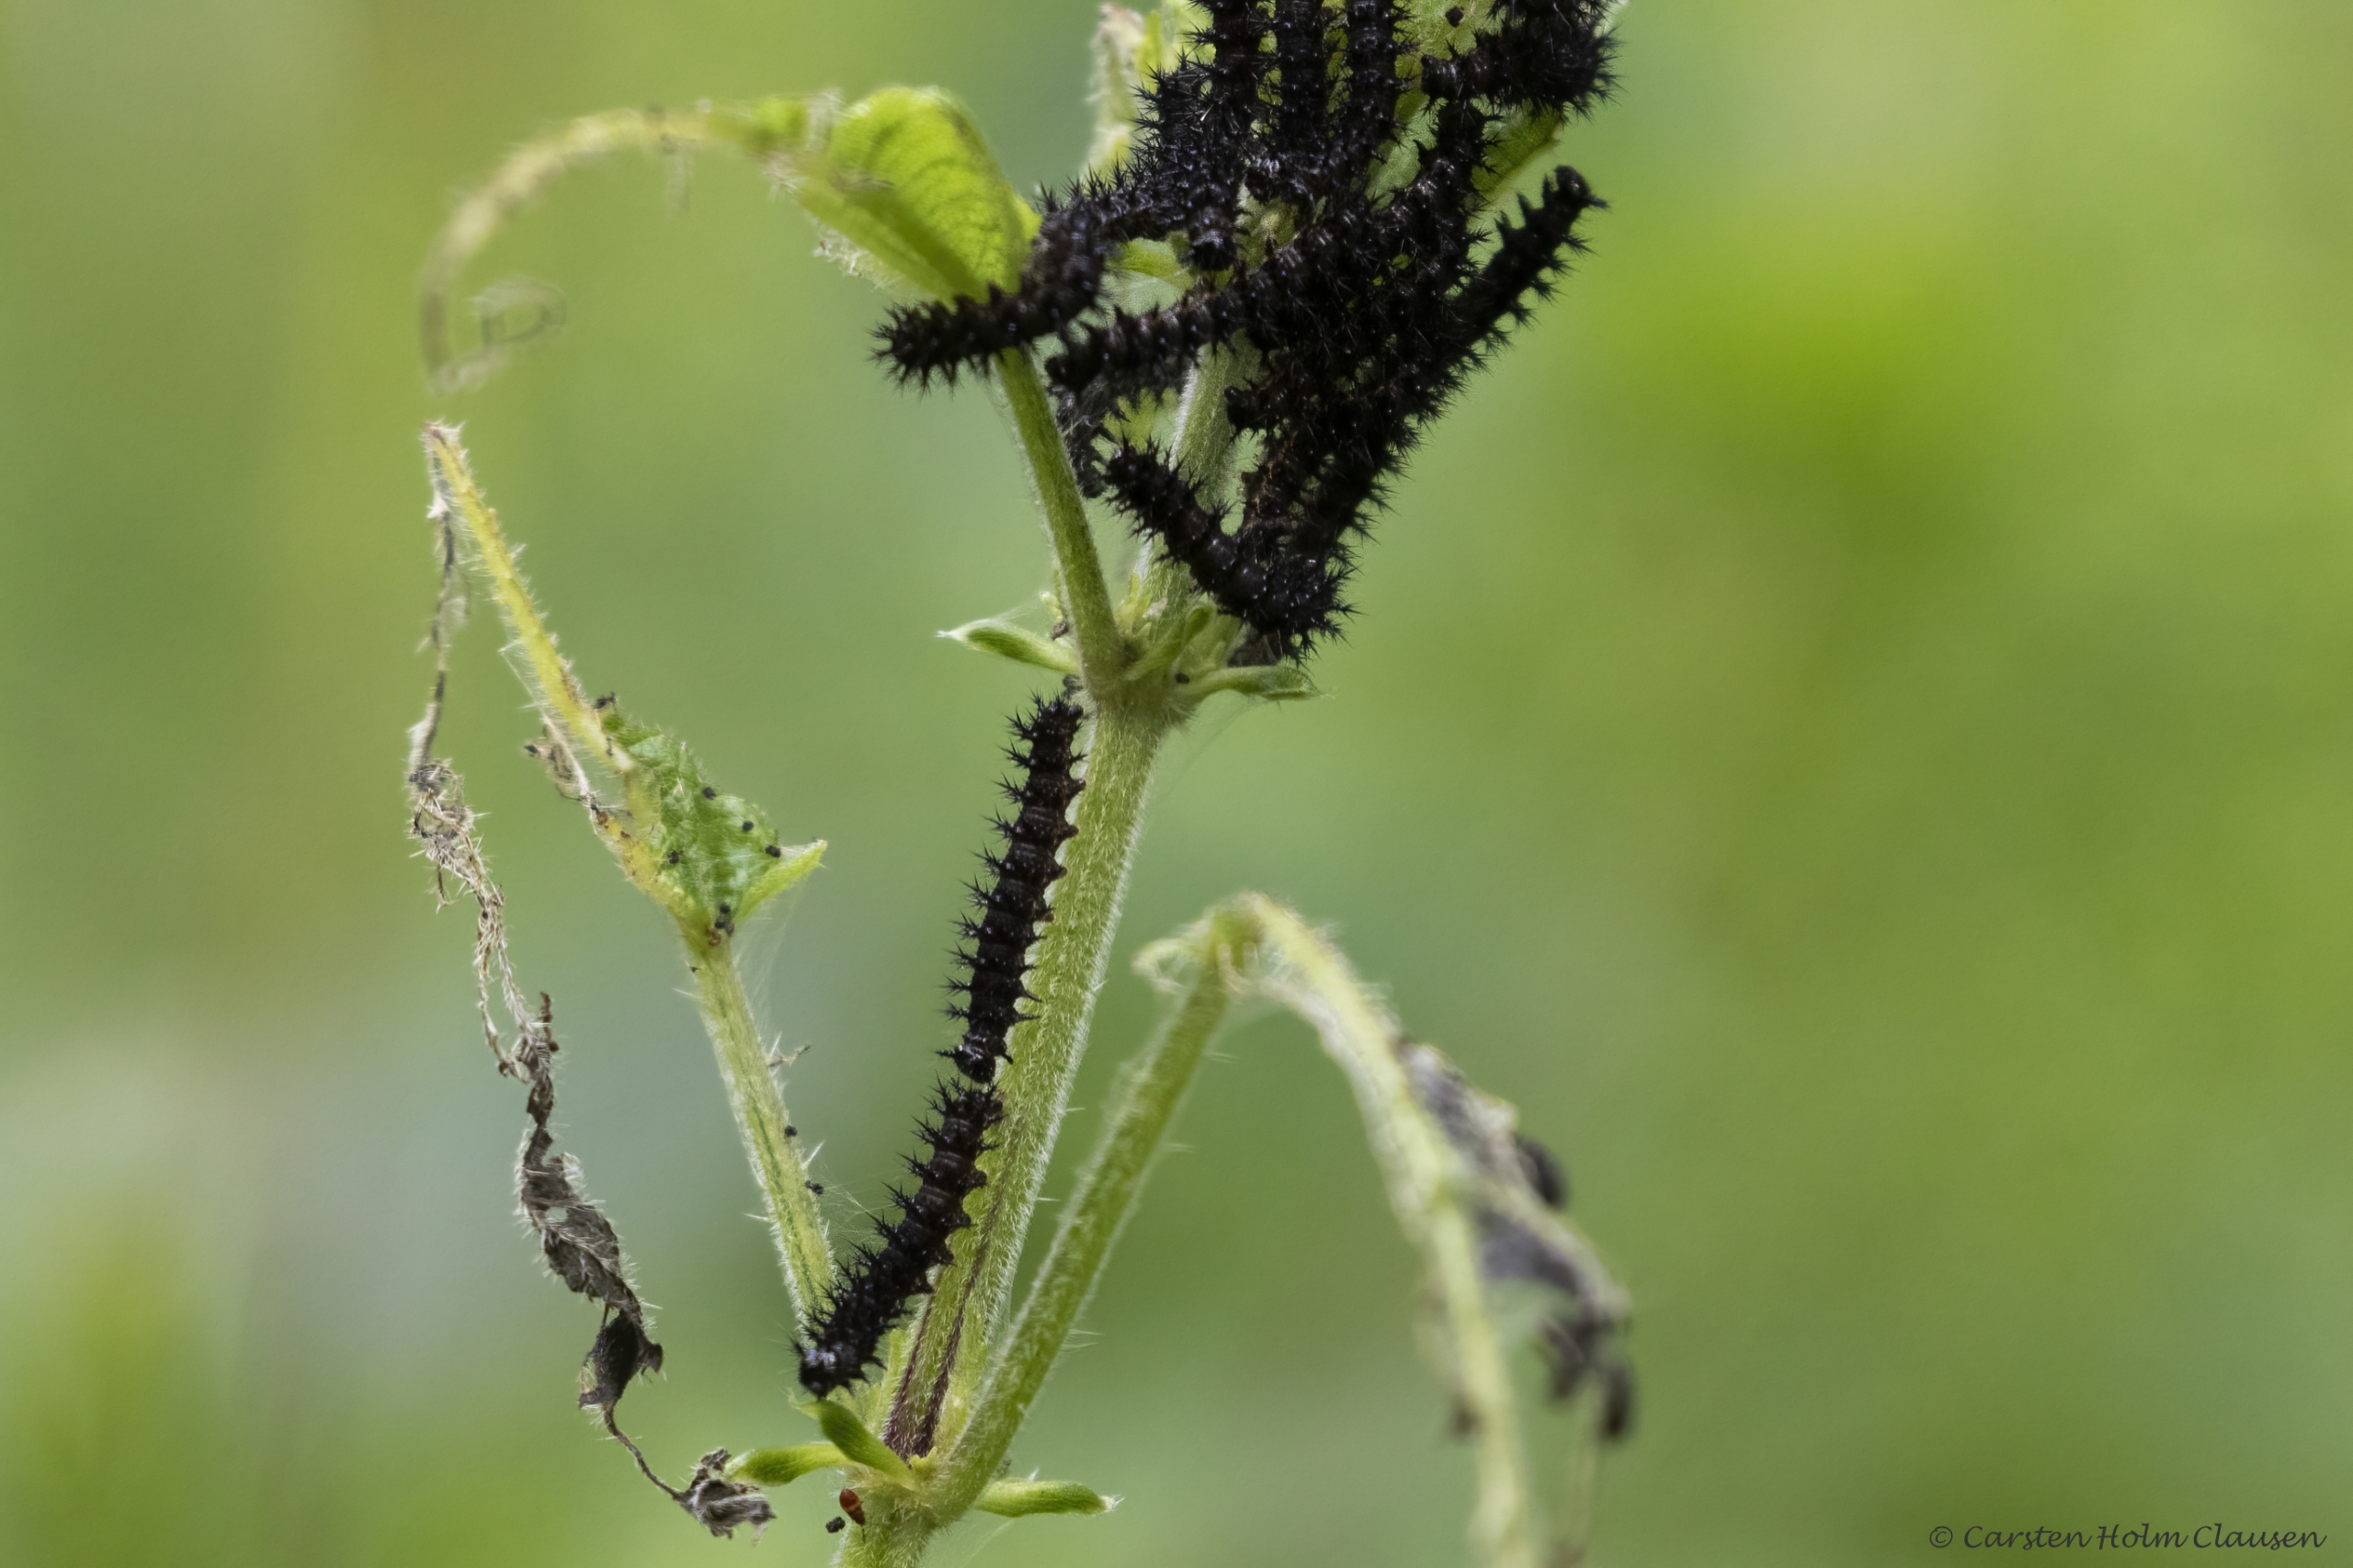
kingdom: Animalia
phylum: Arthropoda
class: Insecta
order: Lepidoptera
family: Nymphalidae
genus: Araschnia
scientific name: Araschnia levana
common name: Nældesommerfugl
